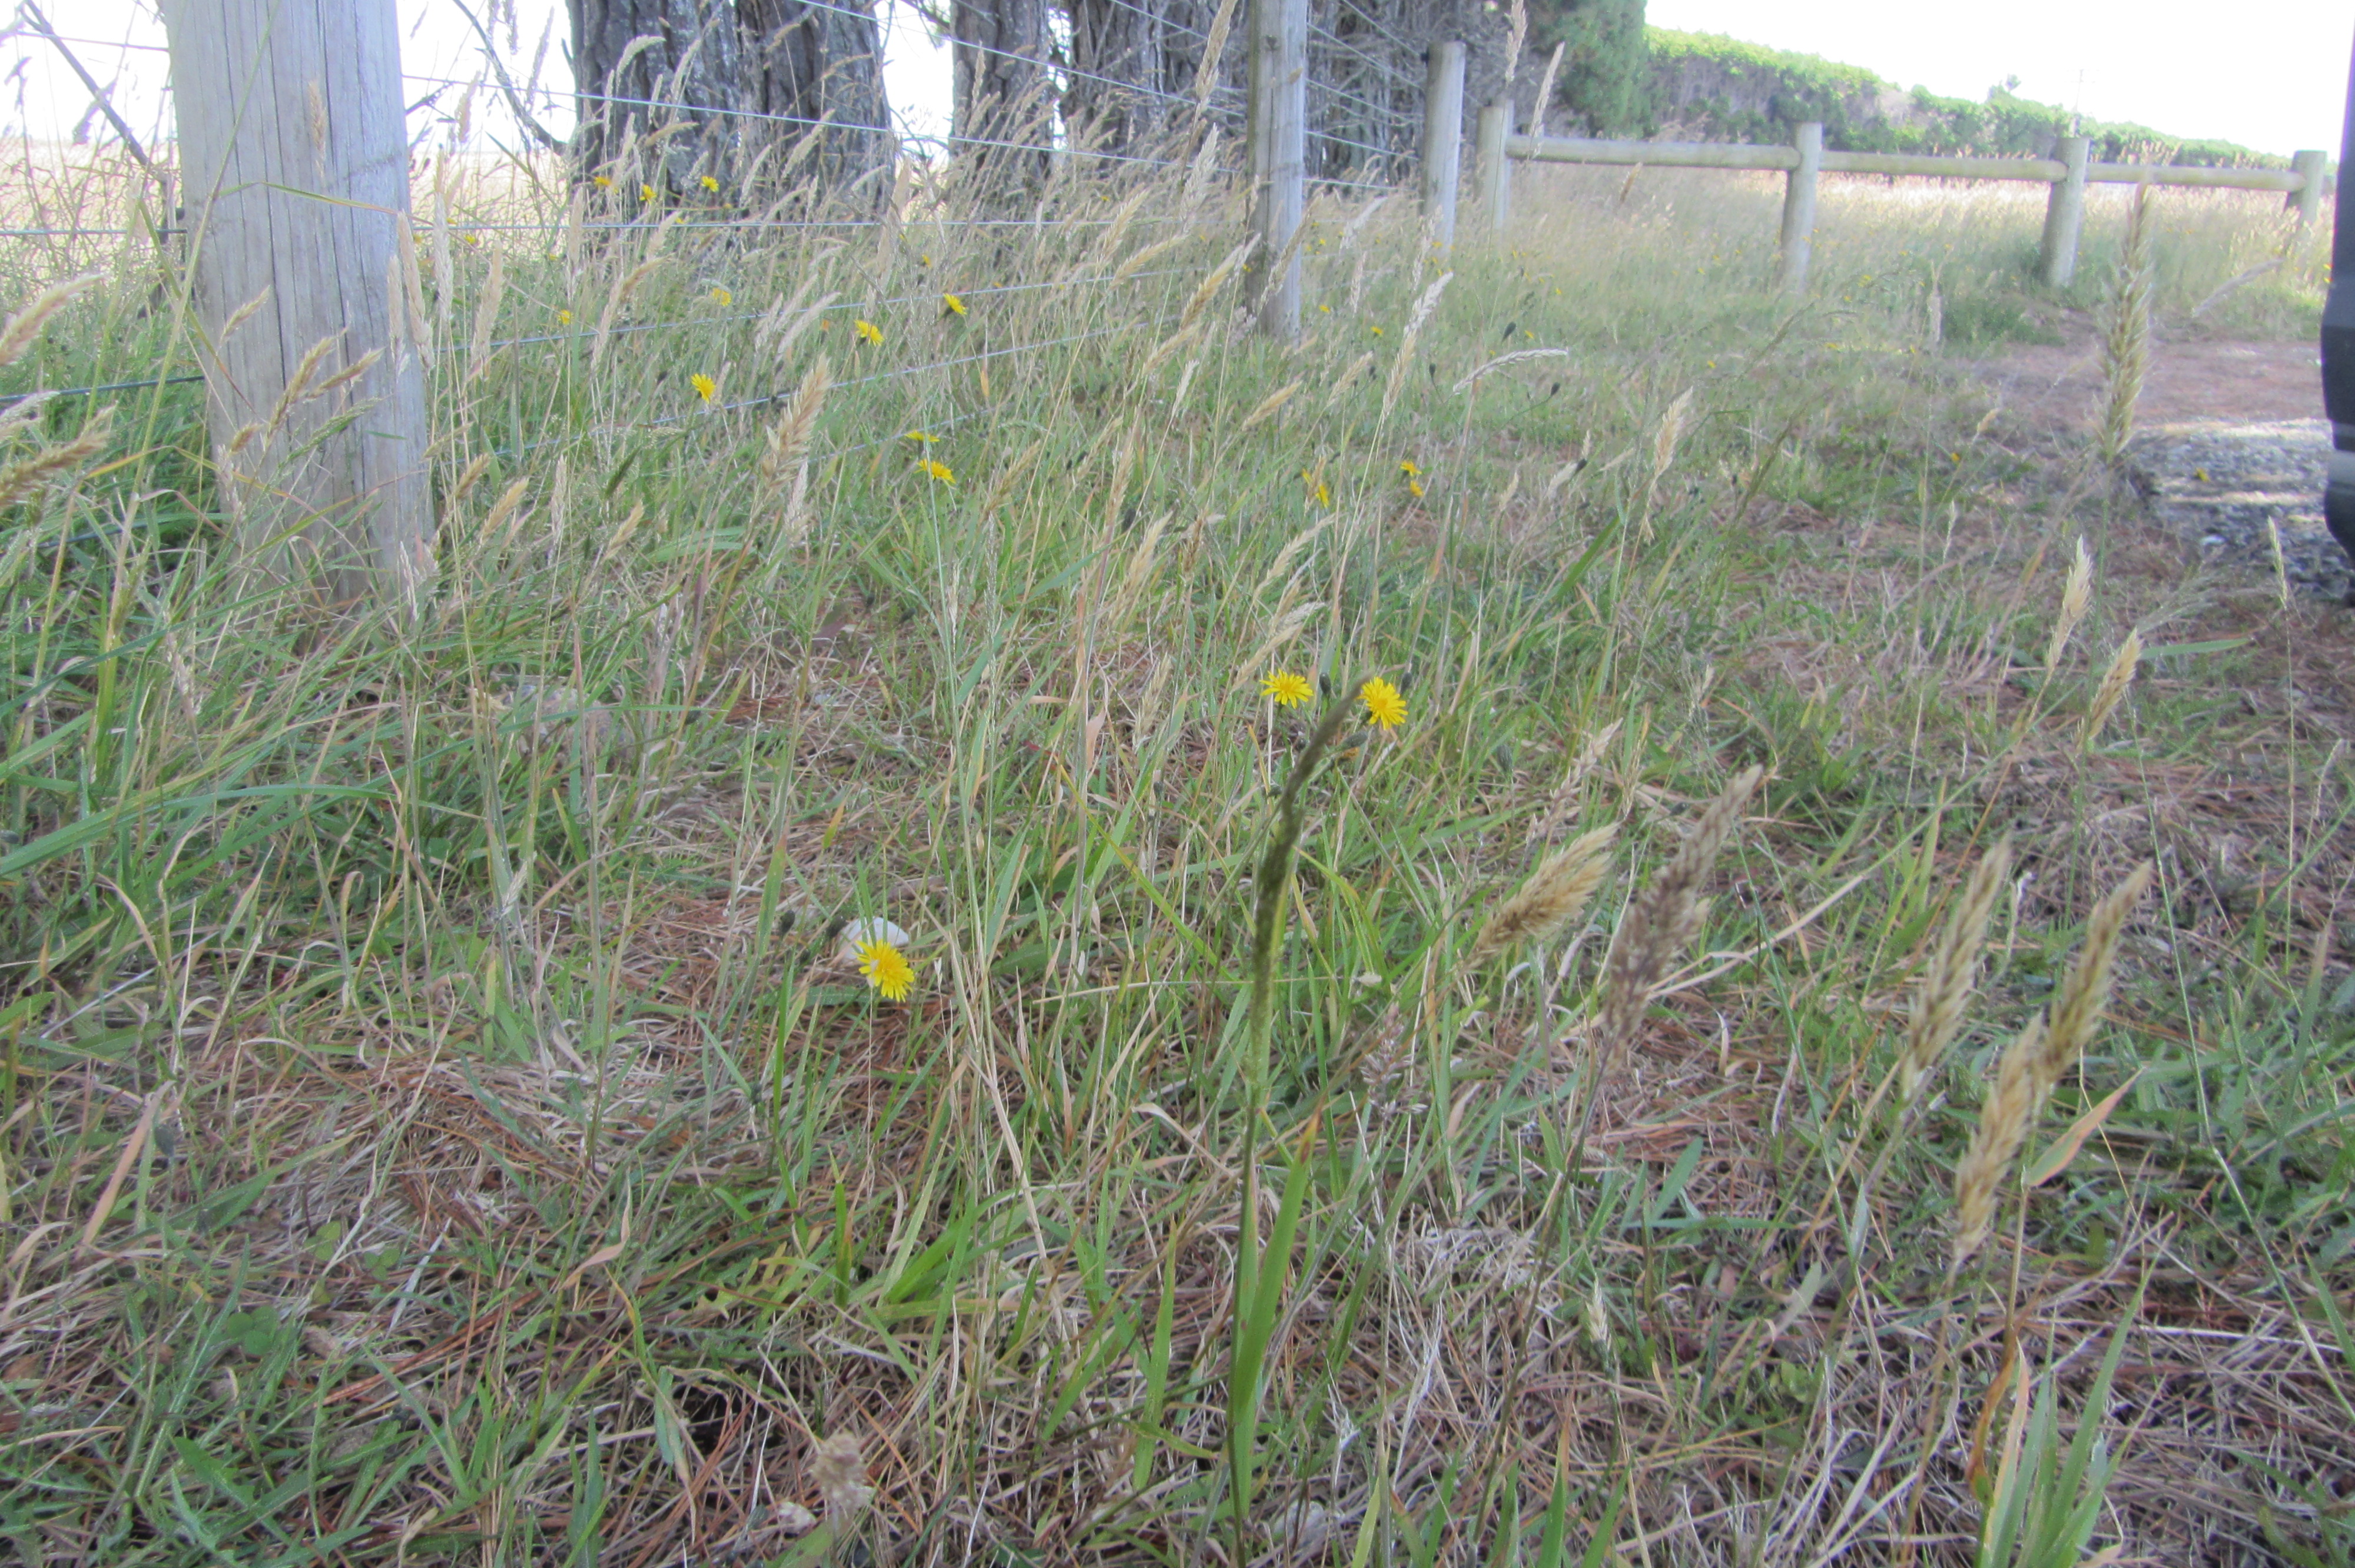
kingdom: Plantae
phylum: Tracheophyta
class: Magnoliopsida
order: Asterales
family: Asteraceae
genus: Scorzoneroides
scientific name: Scorzoneroides autumnalis
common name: Autumn hawkbit
